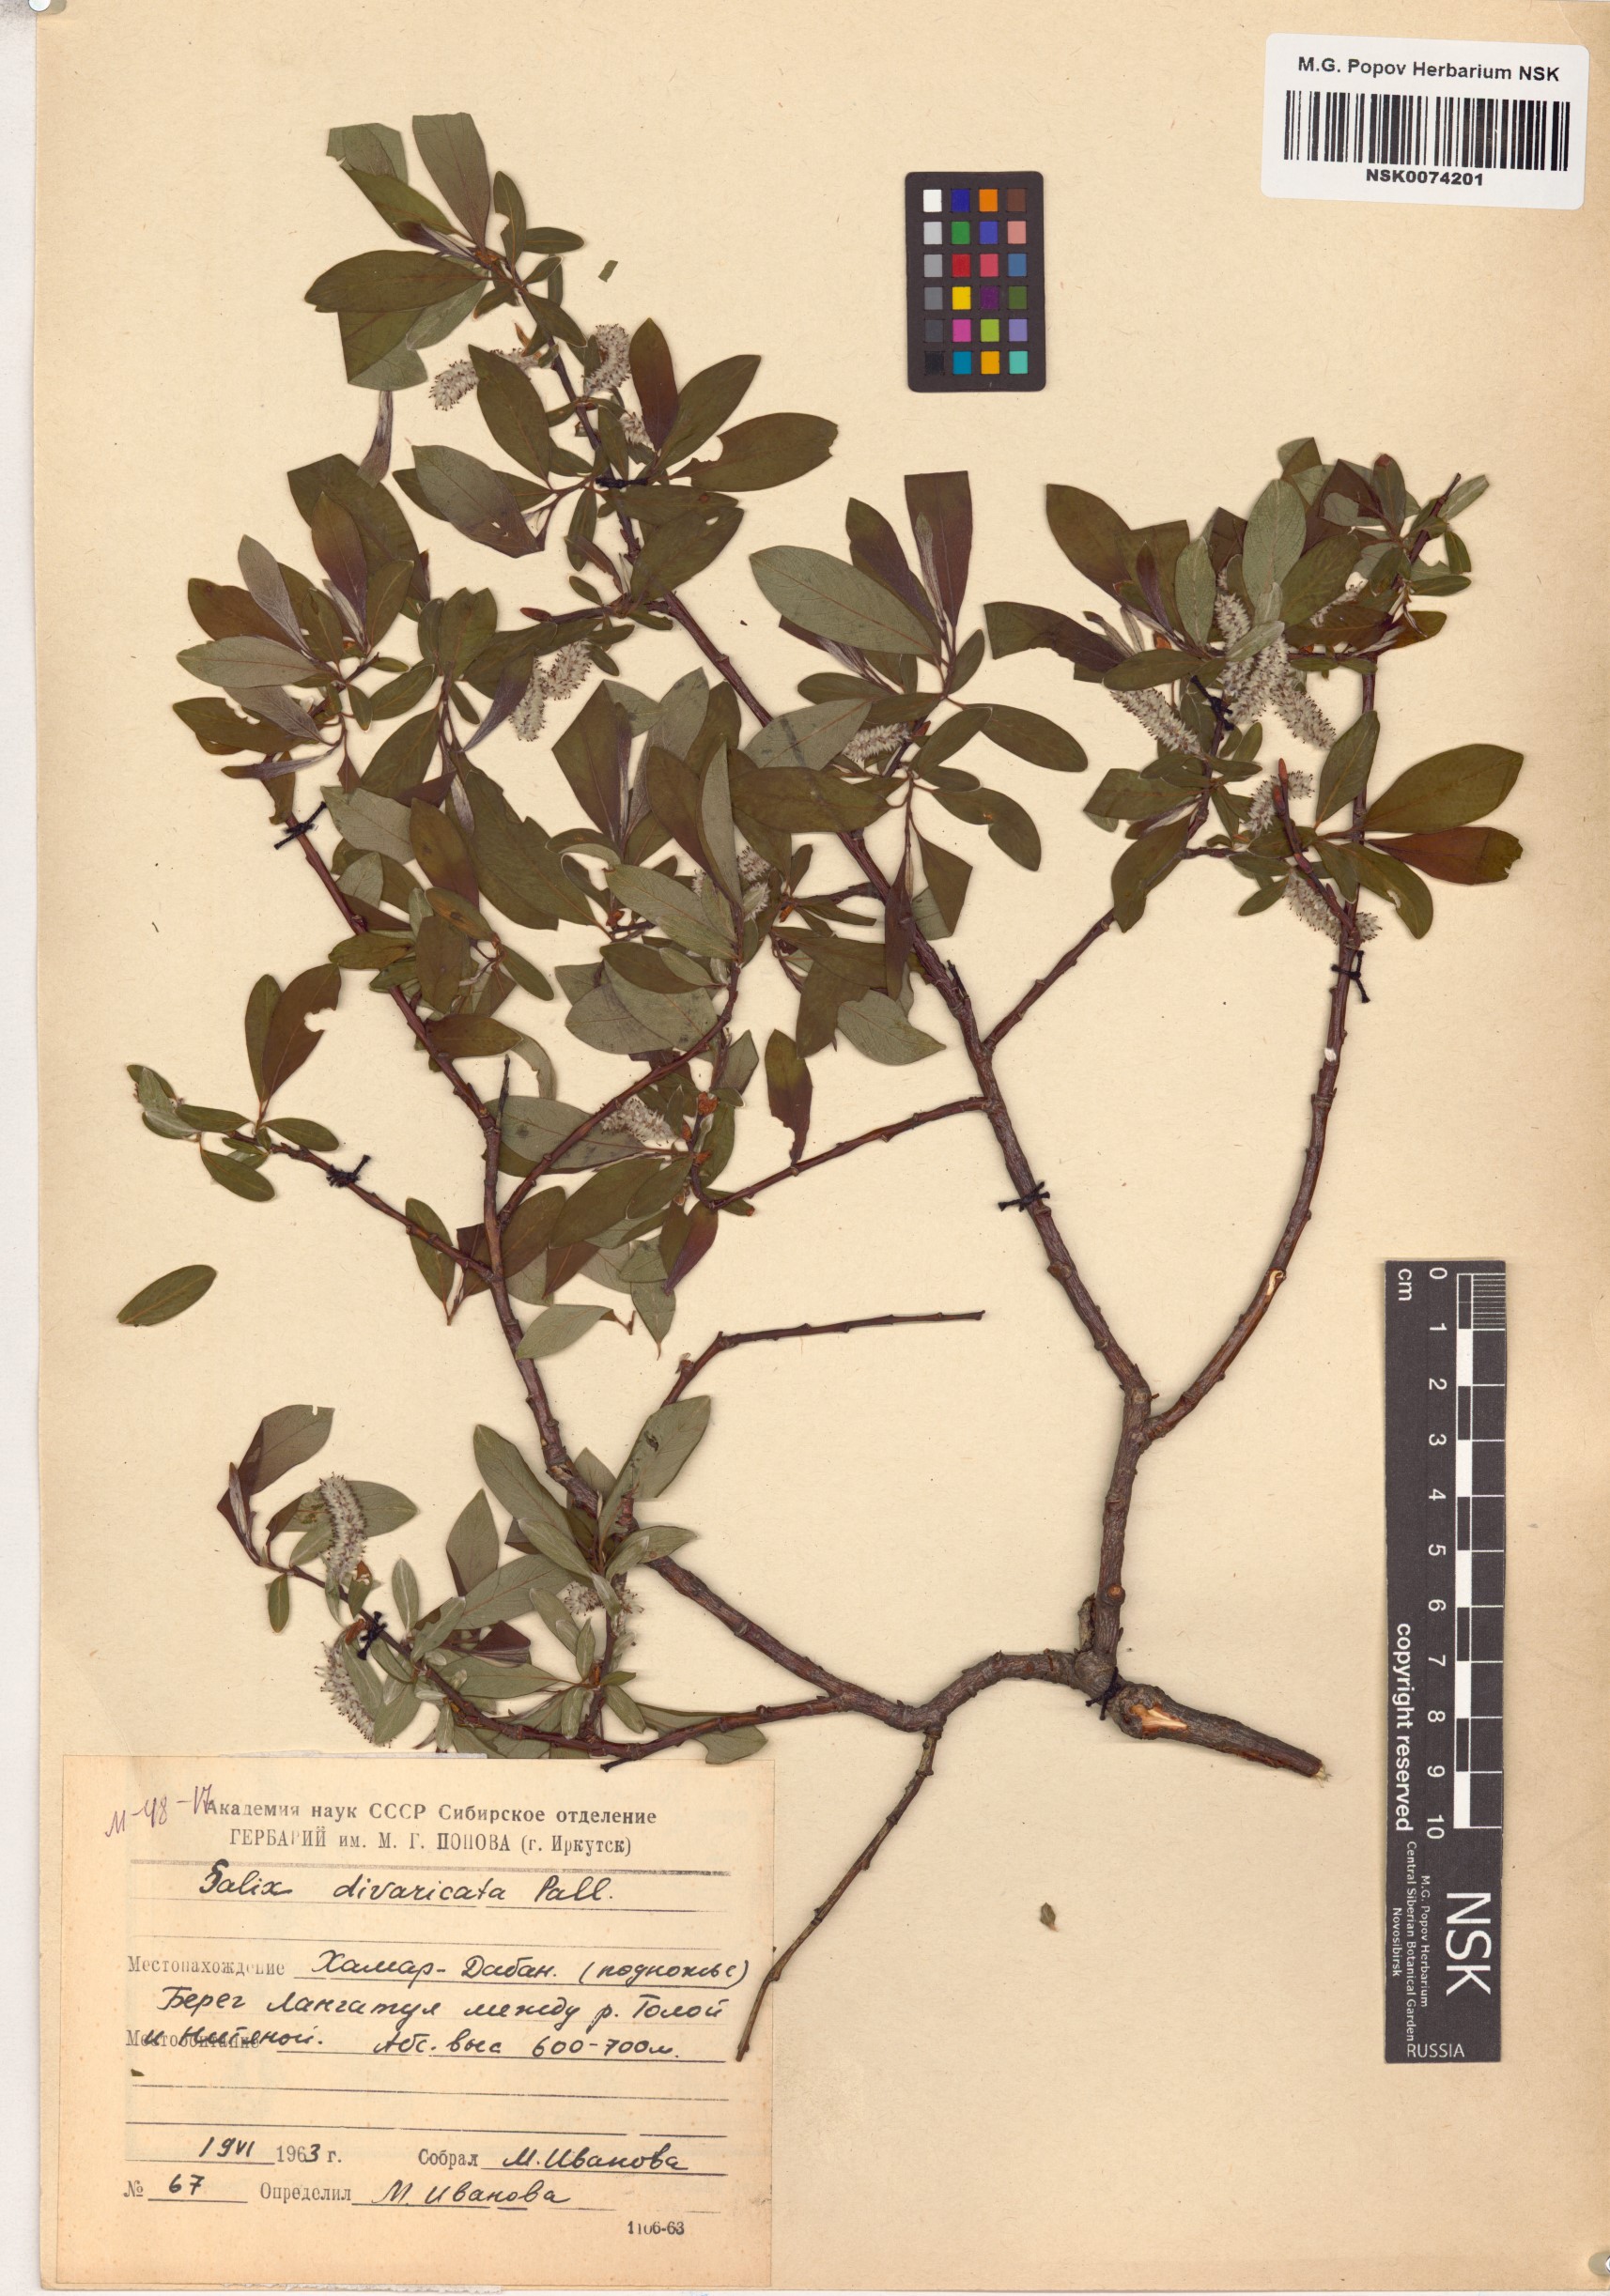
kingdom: Plantae
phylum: Tracheophyta
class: Magnoliopsida
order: Malpighiales
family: Salicaceae
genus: Salix
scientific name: Salix divaricata
